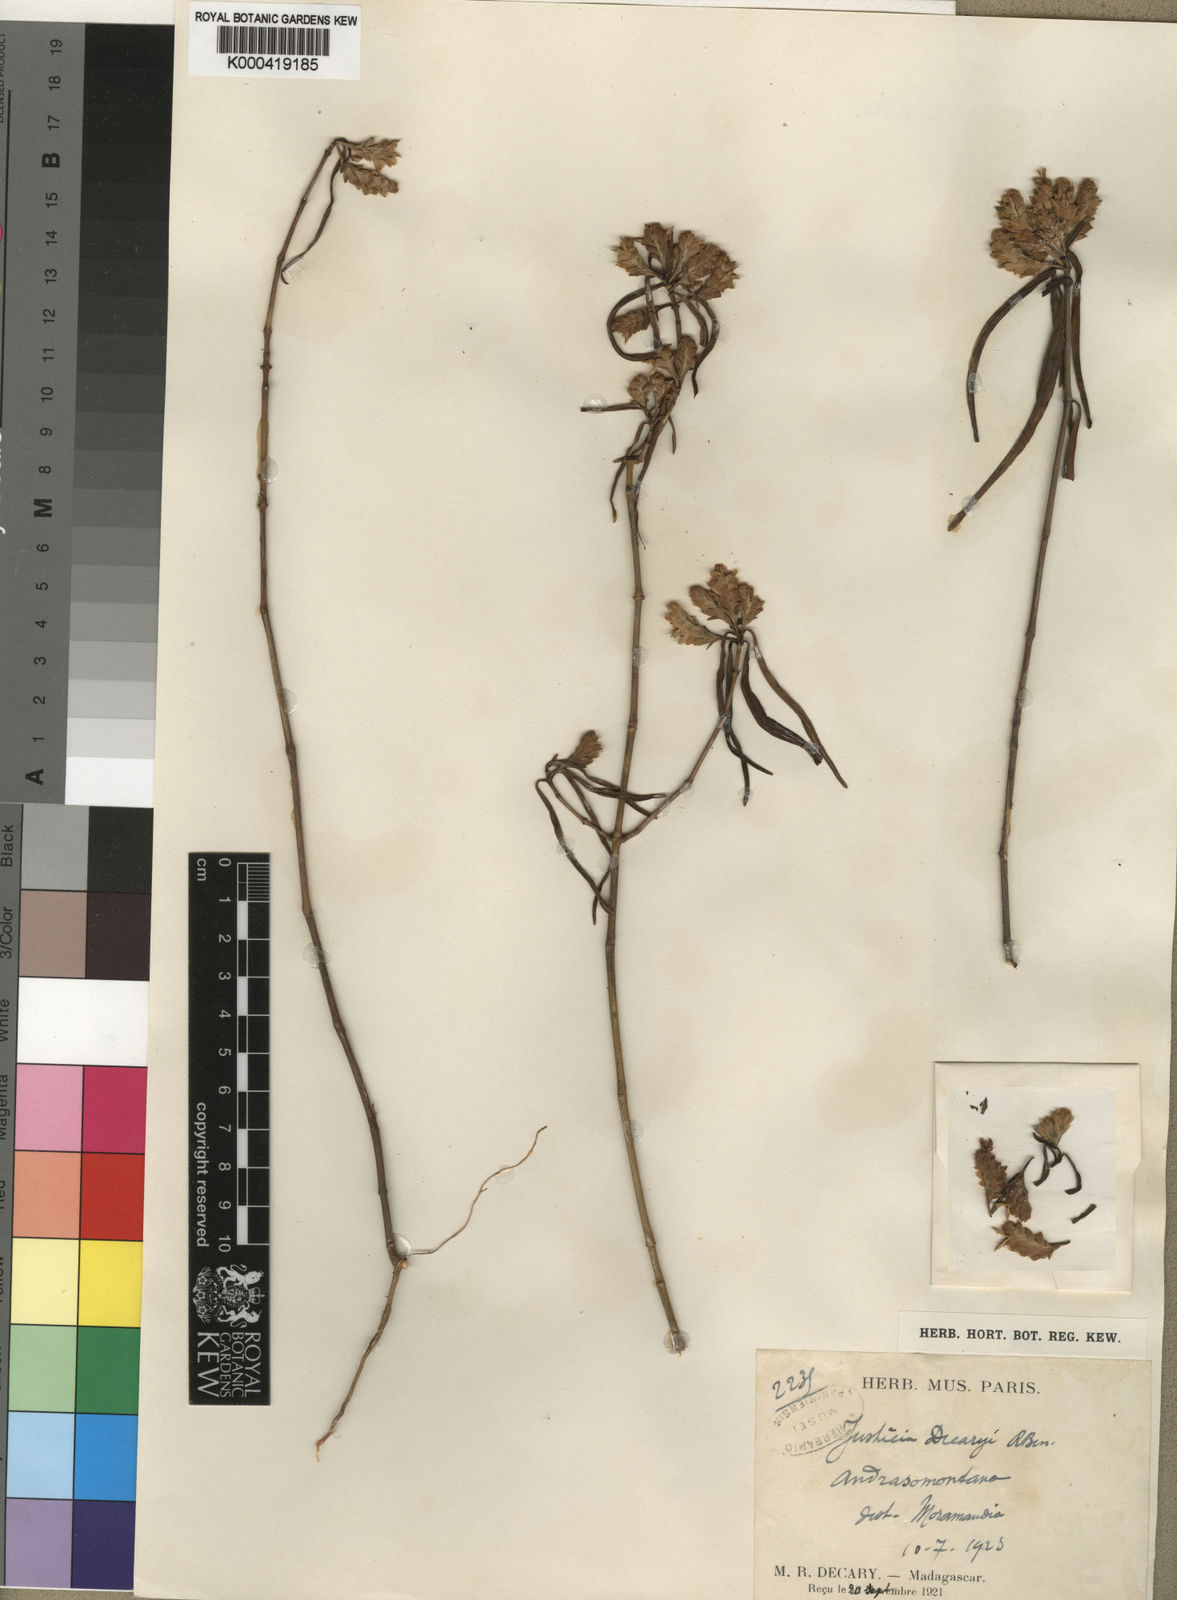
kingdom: Plantae
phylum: Tracheophyta
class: Magnoliopsida
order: Lamiales
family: Acanthaceae
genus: Justicia
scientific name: Justicia decaryi
